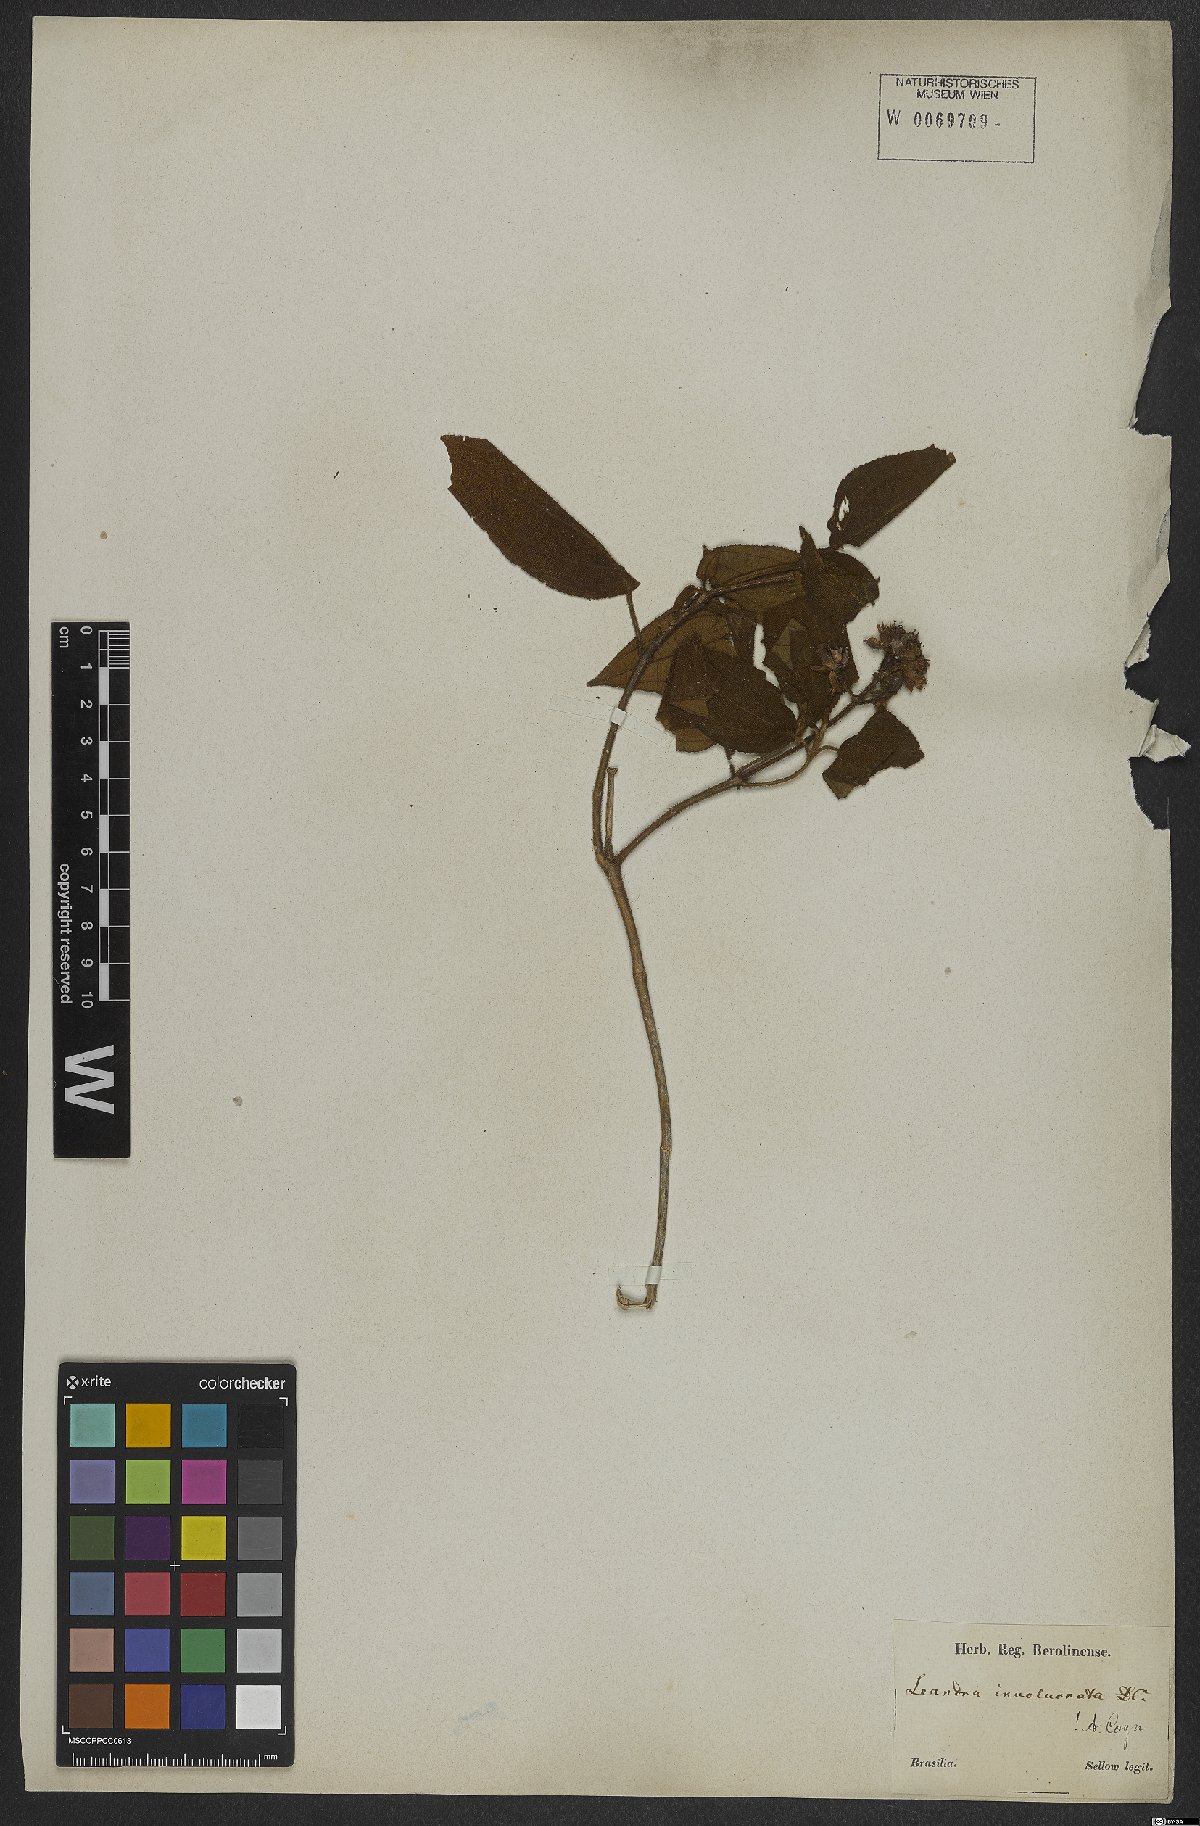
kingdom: Plantae
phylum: Tracheophyta
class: Magnoliopsida
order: Myrtales
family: Melastomataceae
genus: Miconia
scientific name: Miconia leaumbellata
